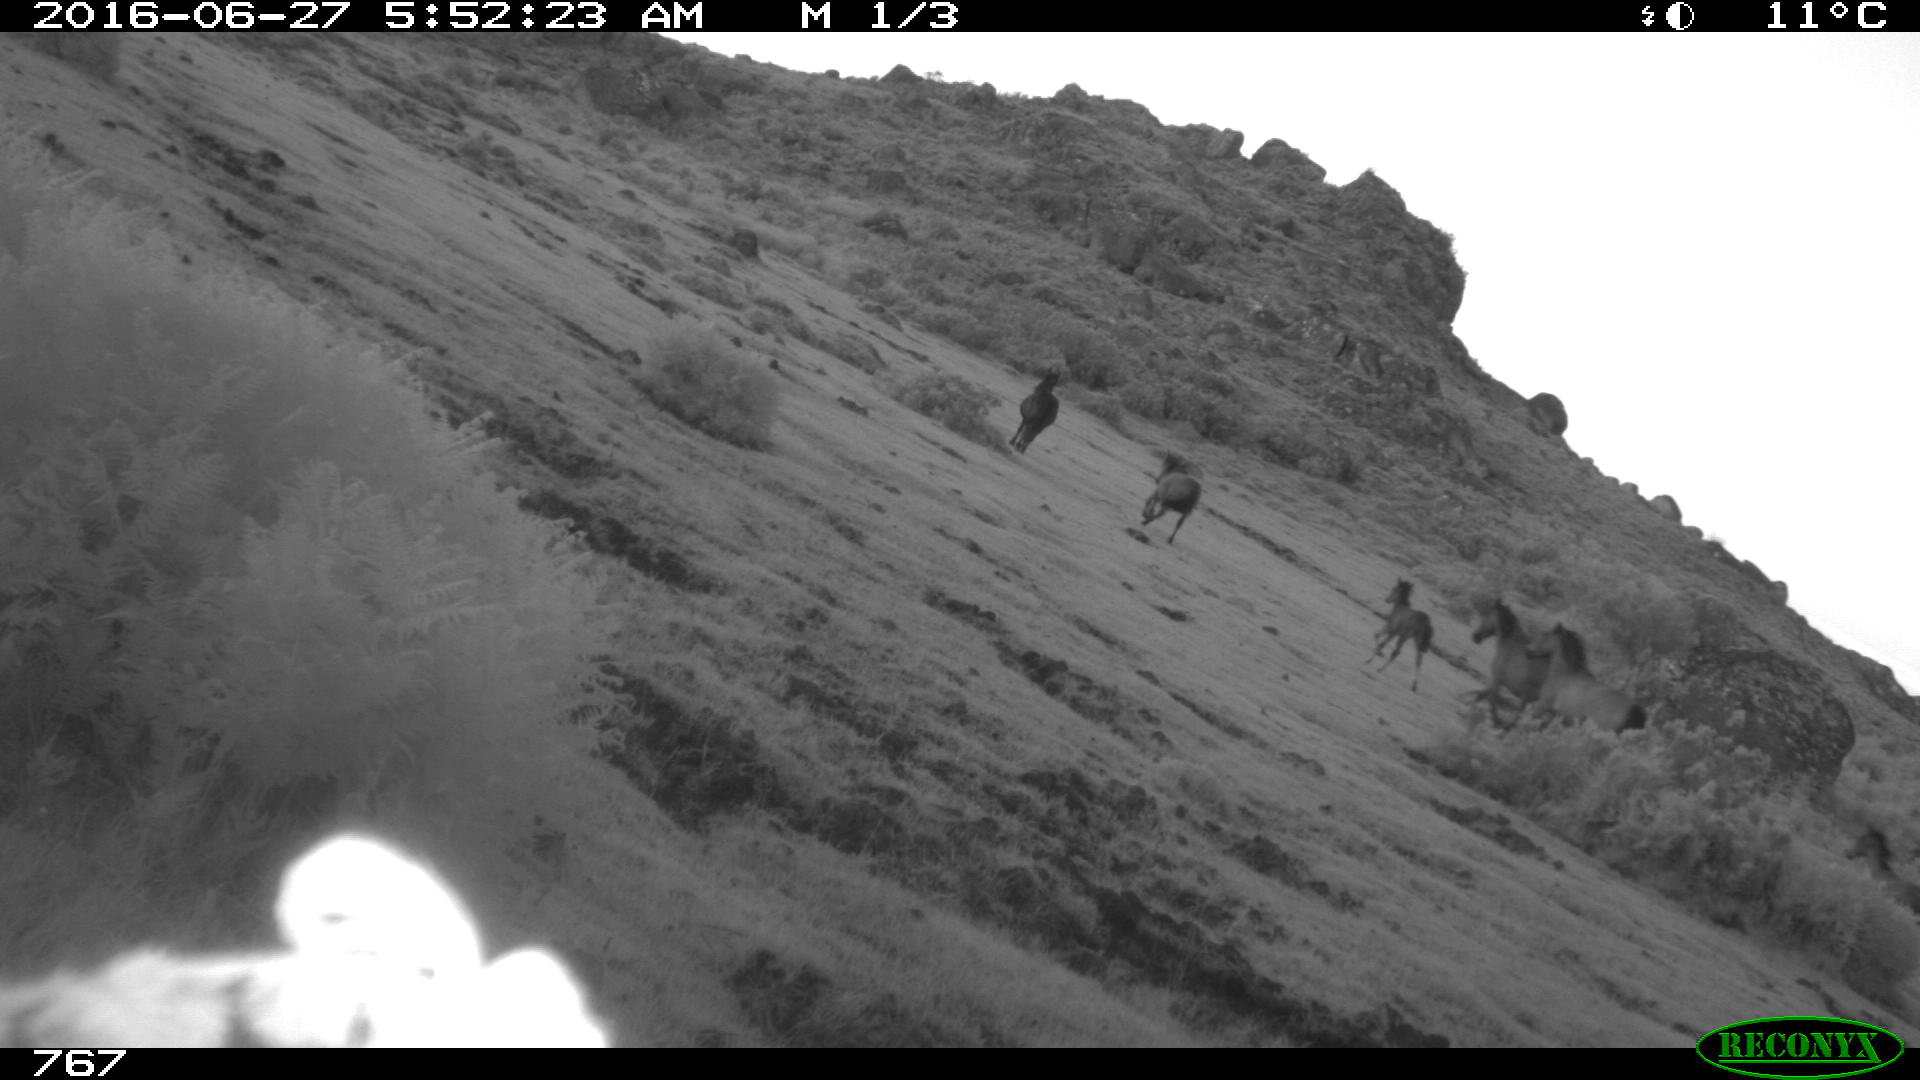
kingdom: Animalia
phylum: Chordata
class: Mammalia
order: Perissodactyla
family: Equidae
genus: Equus
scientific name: Equus caballus
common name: Horse
